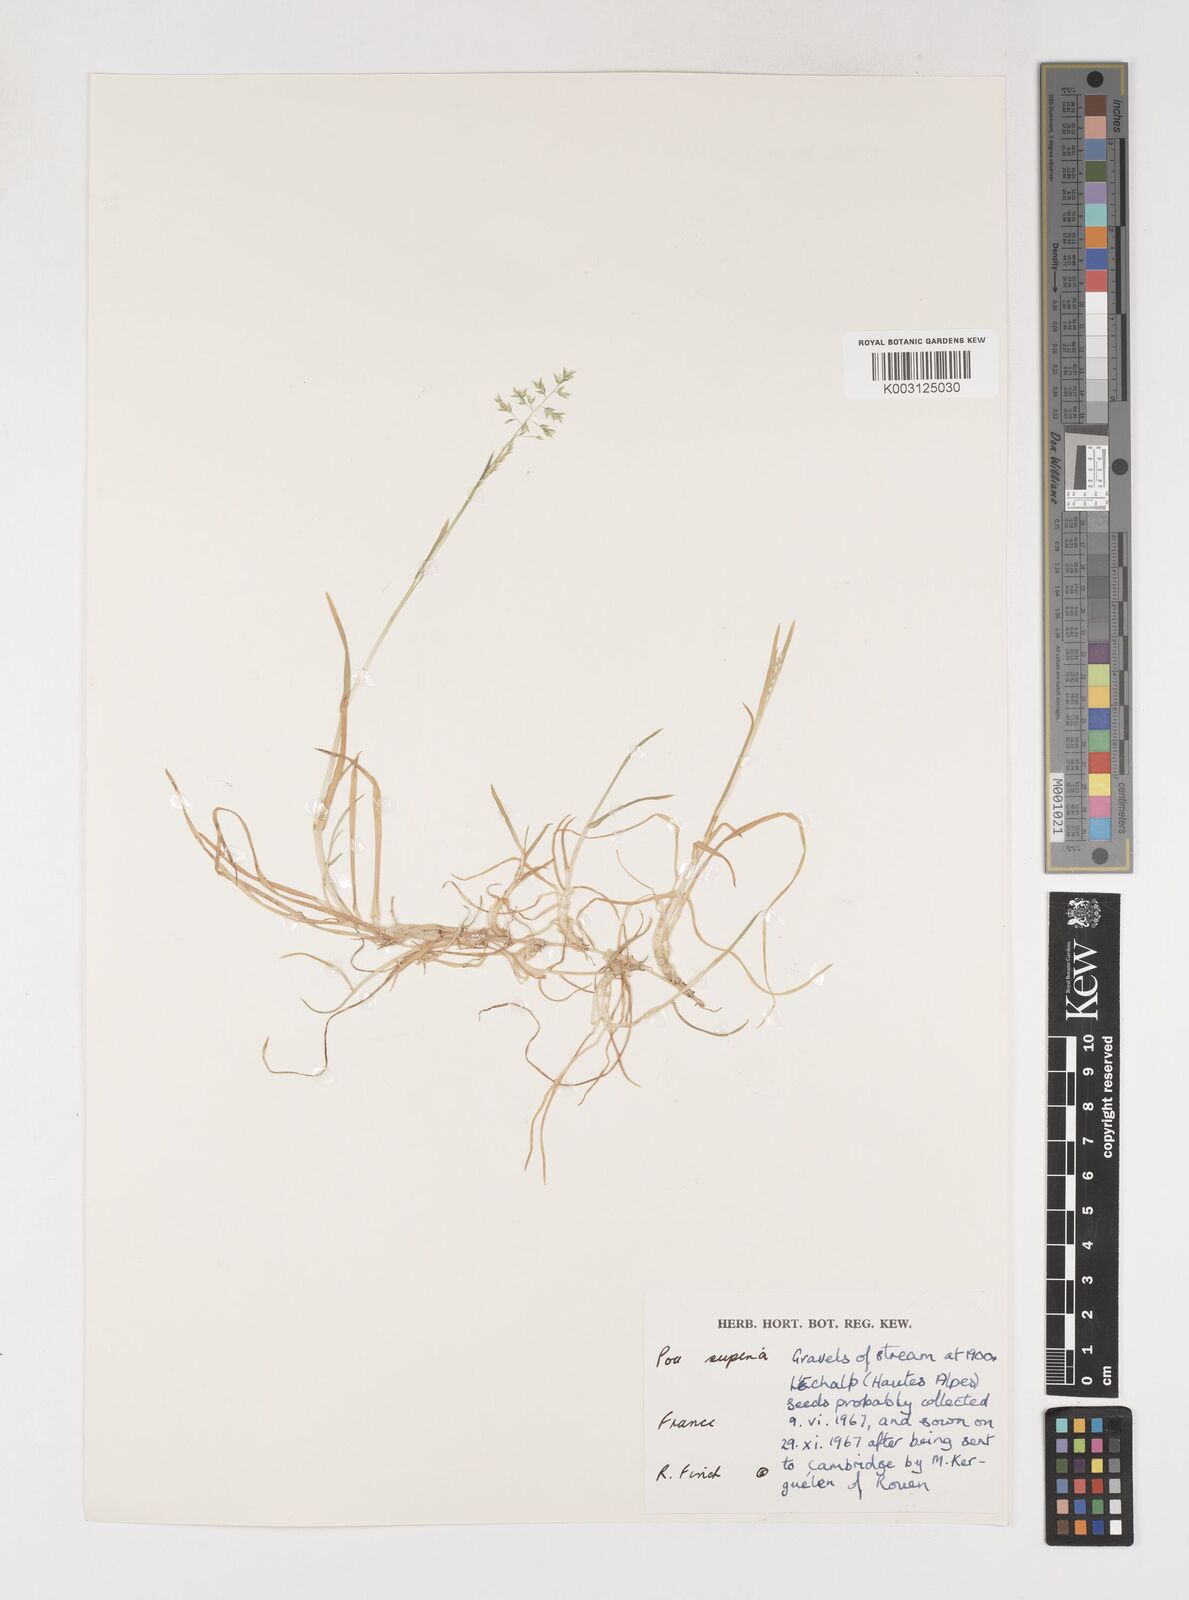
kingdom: Plantae
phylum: Tracheophyta
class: Liliopsida
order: Poales
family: Poaceae
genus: Poa
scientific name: Poa supina
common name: Supina bluegrass
